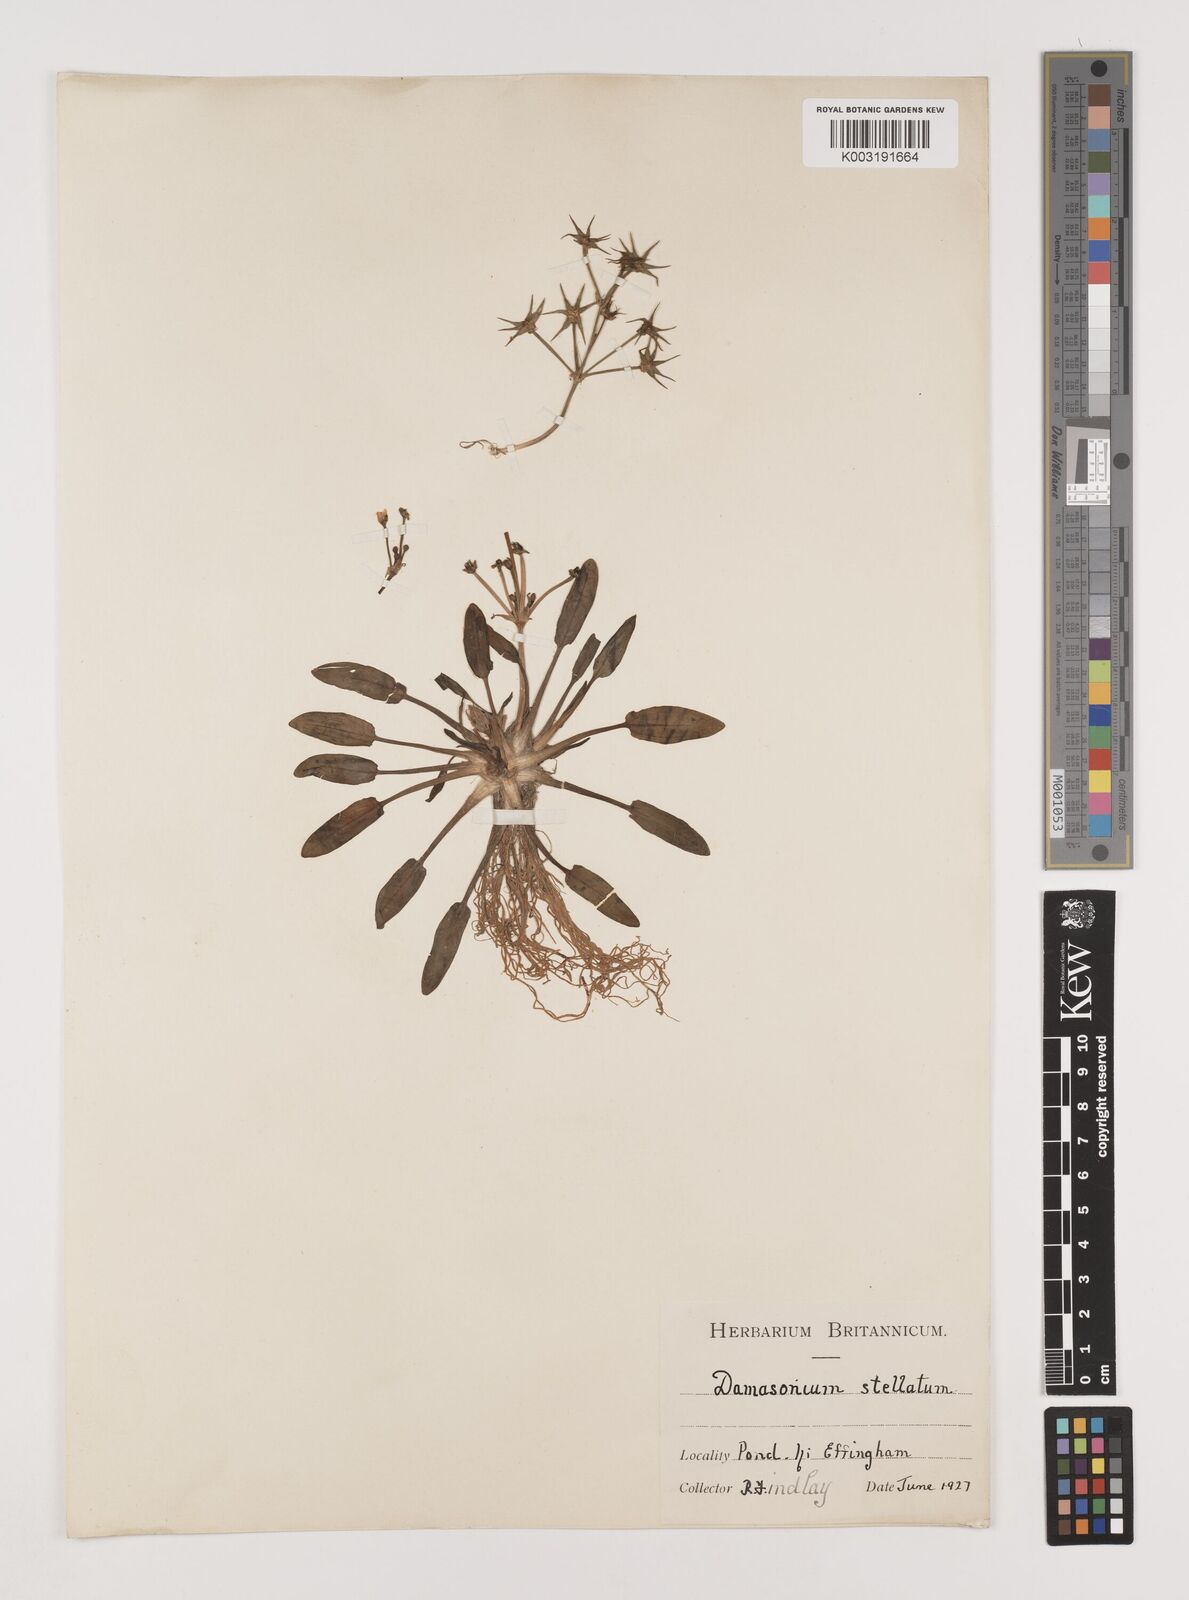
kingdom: Plantae
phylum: Tracheophyta
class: Liliopsida
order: Alismatales
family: Alismataceae
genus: Damasonium
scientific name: Damasonium alisma
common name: Starfruit
